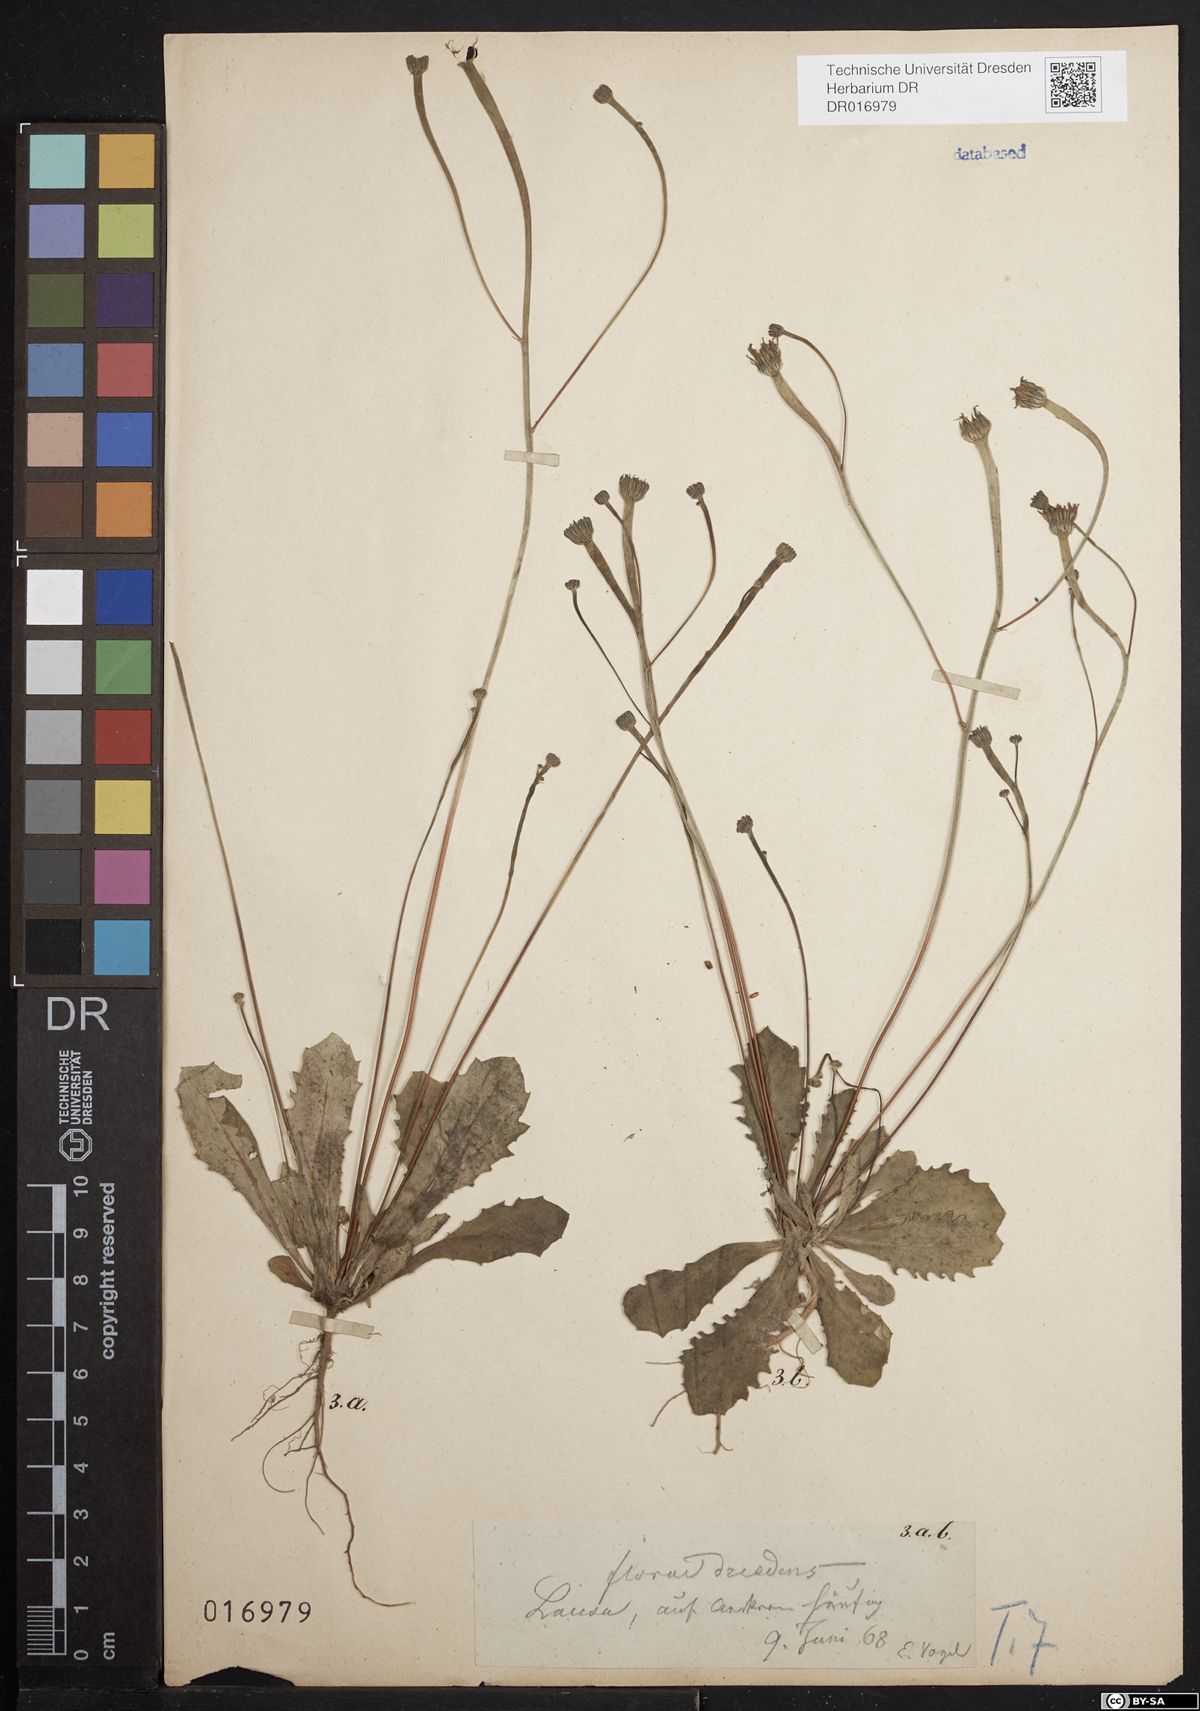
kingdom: Plantae
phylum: Tracheophyta
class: Magnoliopsida
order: Asterales
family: Asteraceae
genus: Arnoseris
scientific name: Arnoseris minima
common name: Lamb's succory
